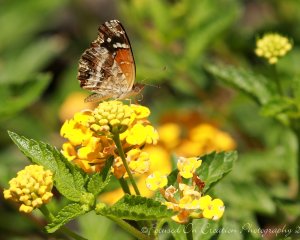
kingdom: Animalia
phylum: Arthropoda
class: Insecta
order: Lepidoptera
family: Nymphalidae
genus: Anthanassa
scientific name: Anthanassa texana
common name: Texan Crescent
